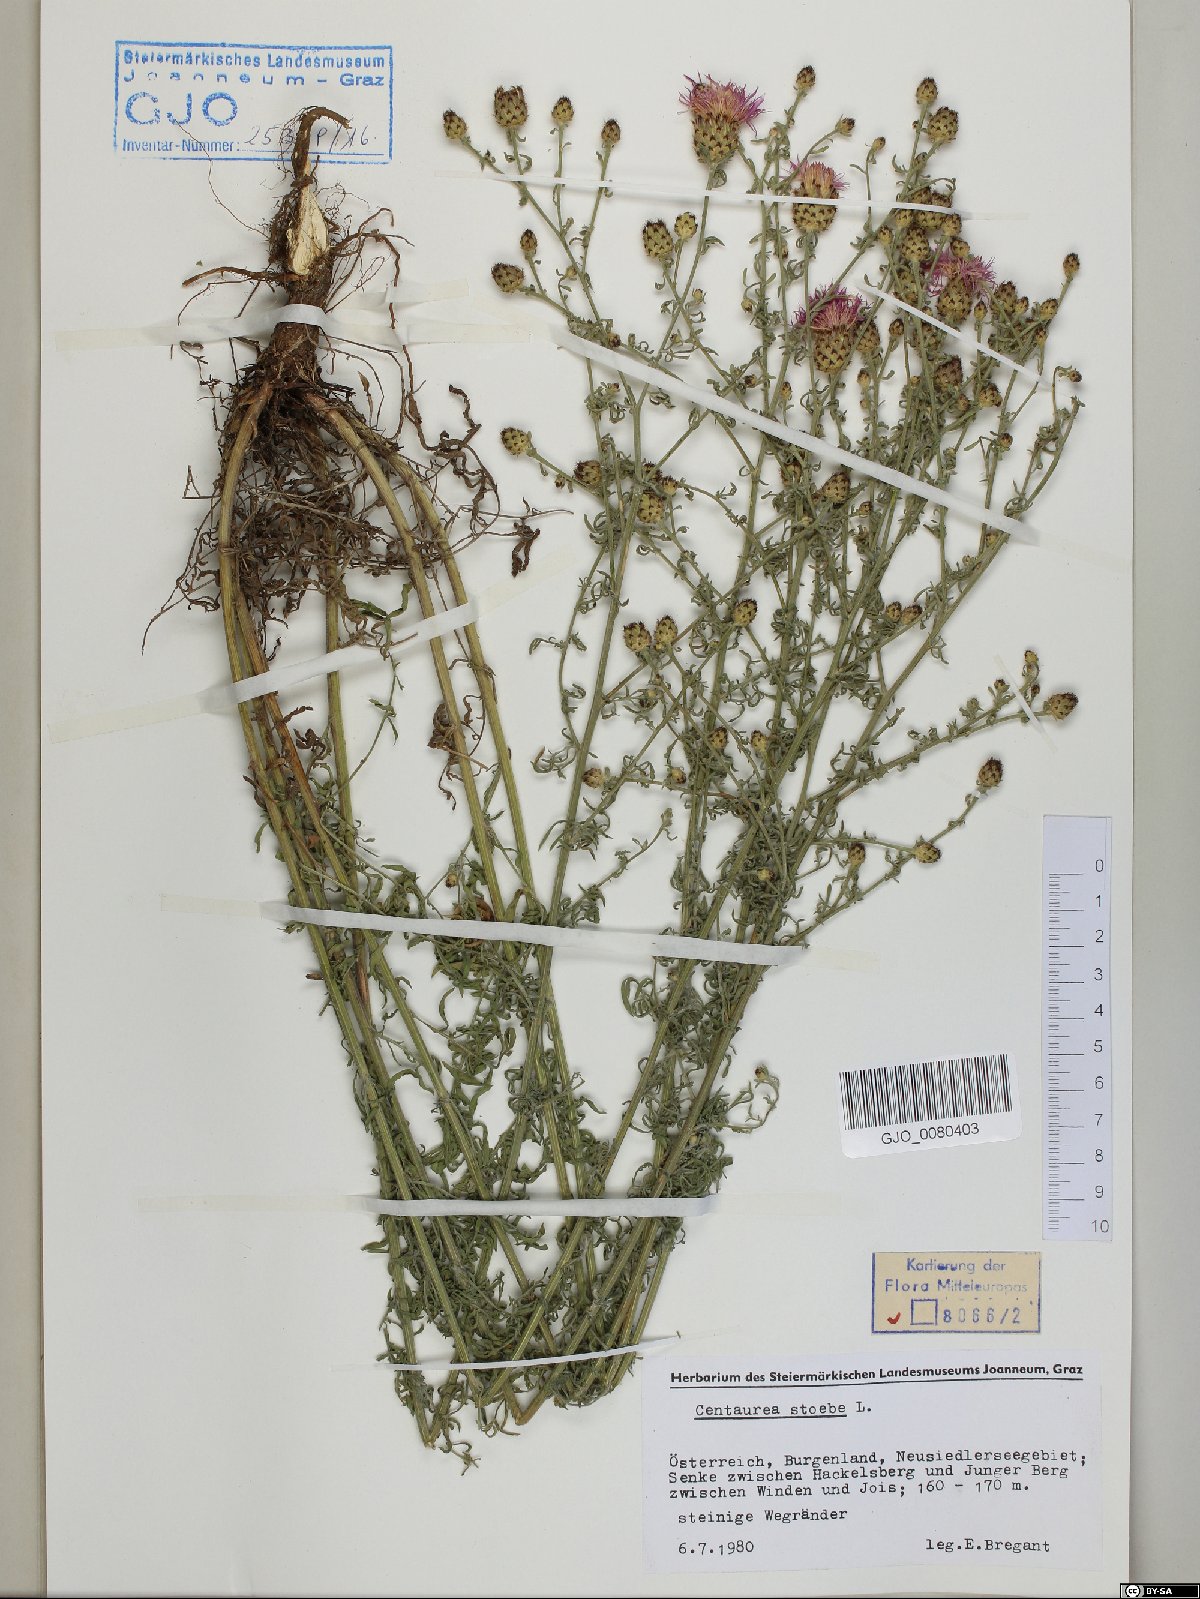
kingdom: Plantae
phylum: Tracheophyta
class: Magnoliopsida
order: Asterales
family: Asteraceae
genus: Centaurea
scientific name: Centaurea stoebe
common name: Spotted knapweed
